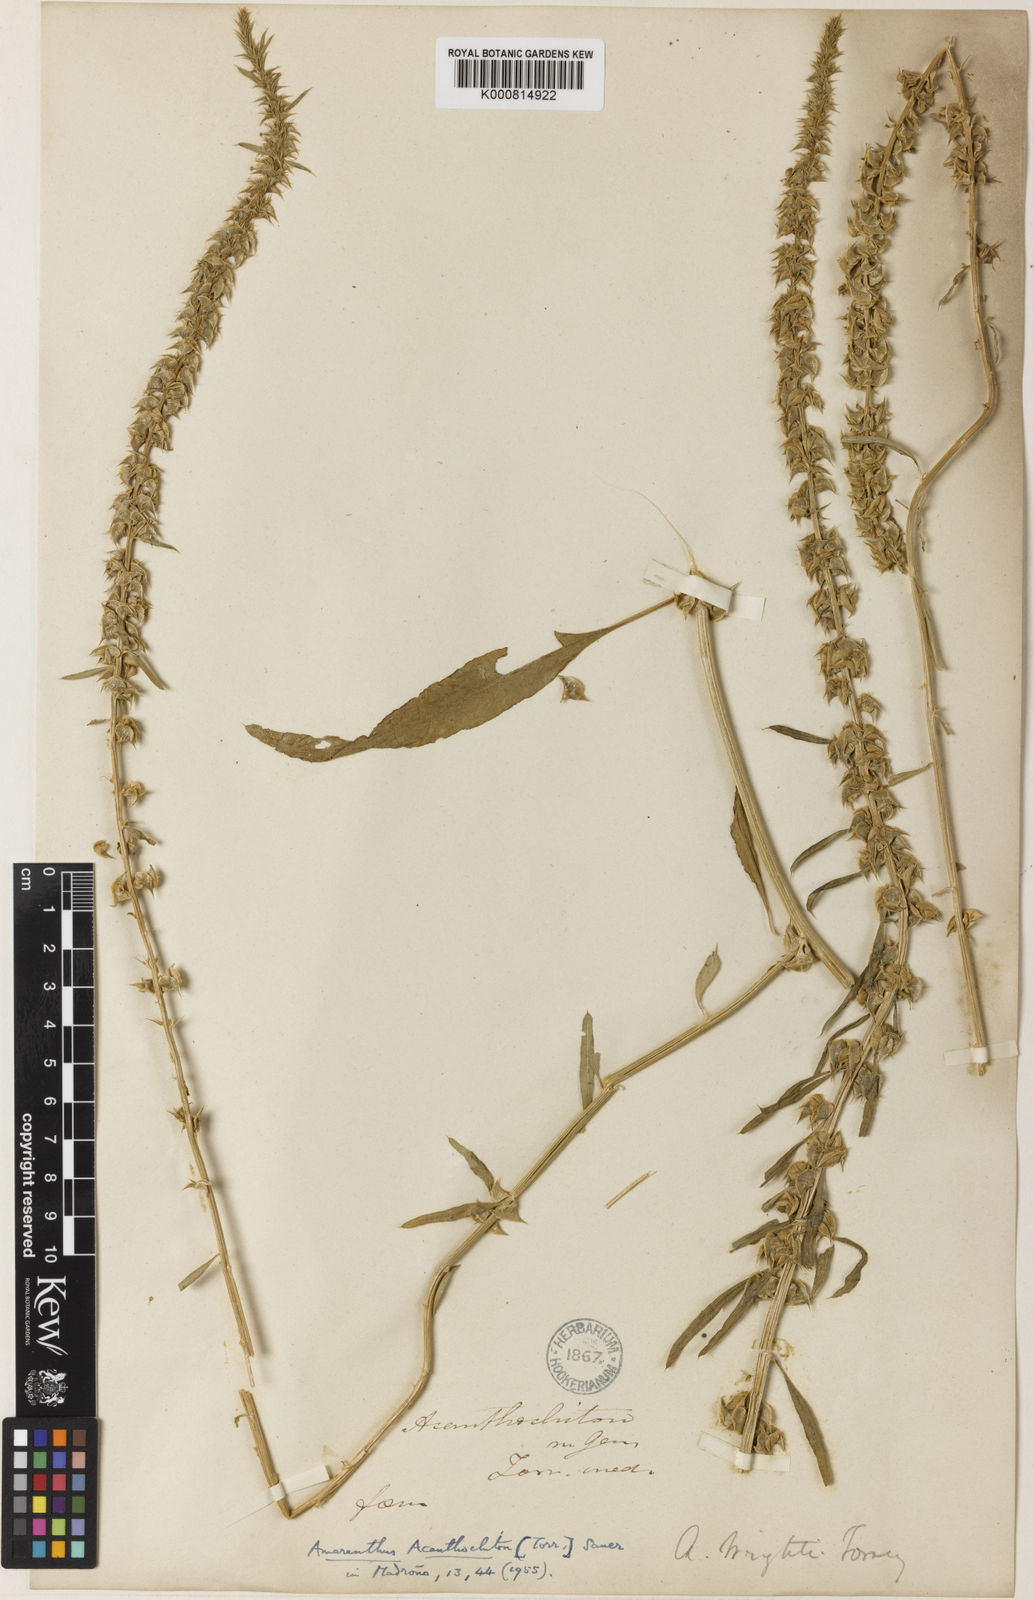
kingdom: Plantae
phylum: Tracheophyta
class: Magnoliopsida
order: Caryophyllales
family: Amaranthaceae
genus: Amaranthus
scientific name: Amaranthus acanthochiton
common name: Greenstripe
